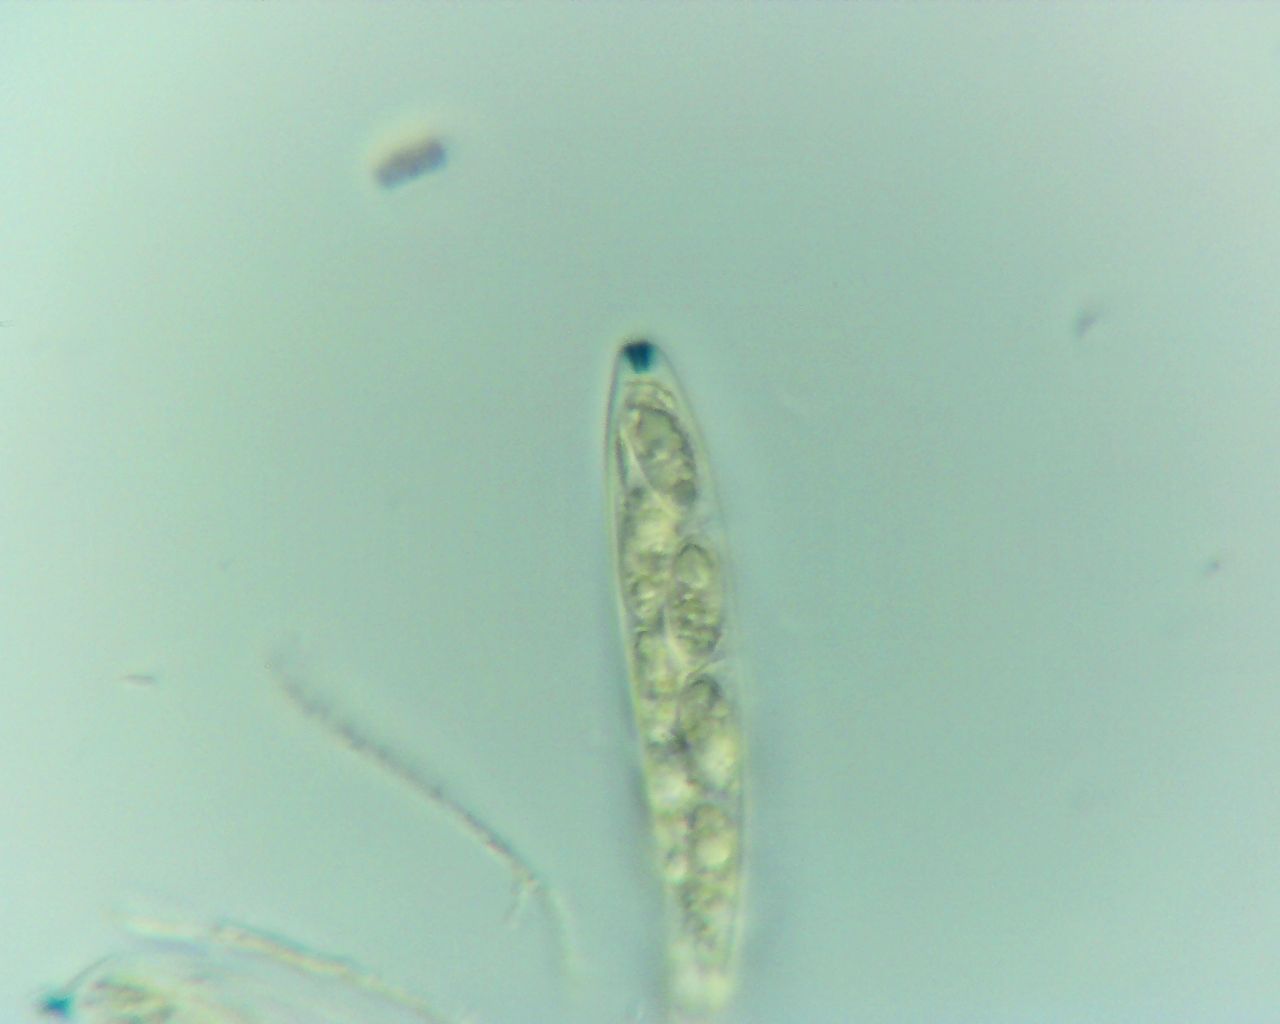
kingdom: Fungi
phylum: Ascomycota
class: Leotiomycetes
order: Helotiales
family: Cenangiaceae
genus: Trochila
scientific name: Trochila laurocerasi
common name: kirsebær-lågskive
